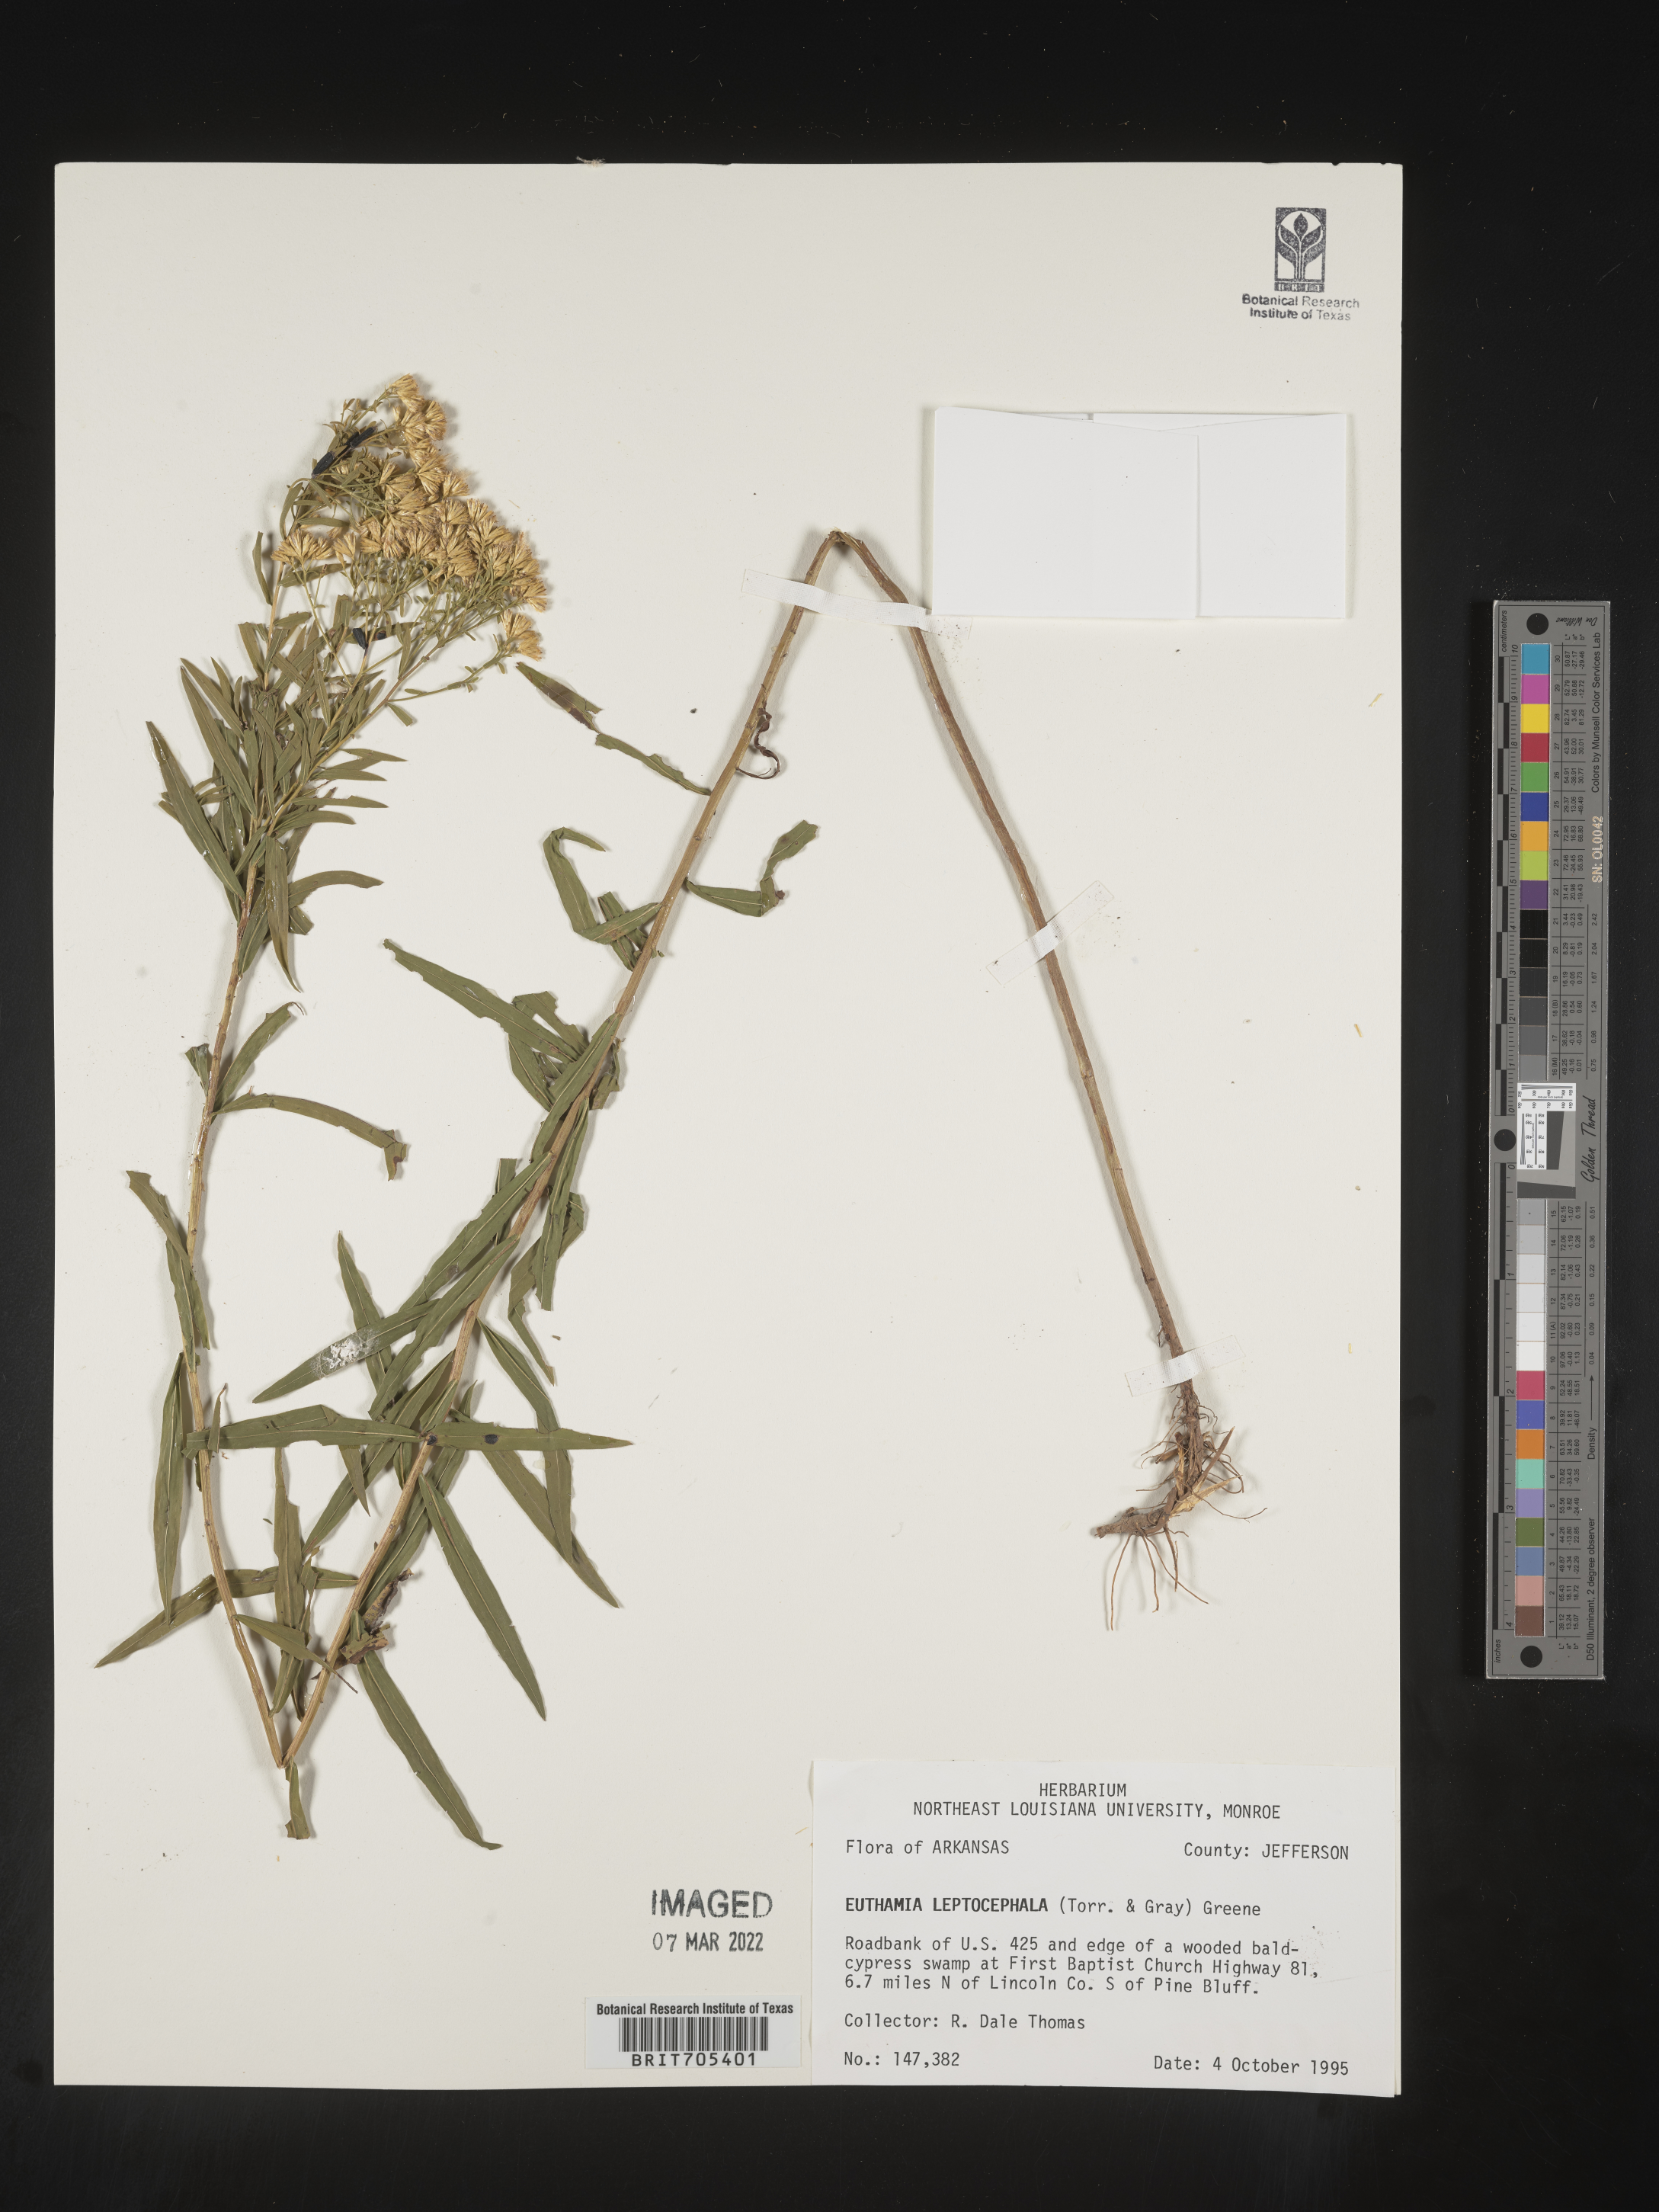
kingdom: Plantae
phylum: Tracheophyta
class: Magnoliopsida
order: Asterales
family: Asteraceae
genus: Euthamia
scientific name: Euthamia leptocephala
